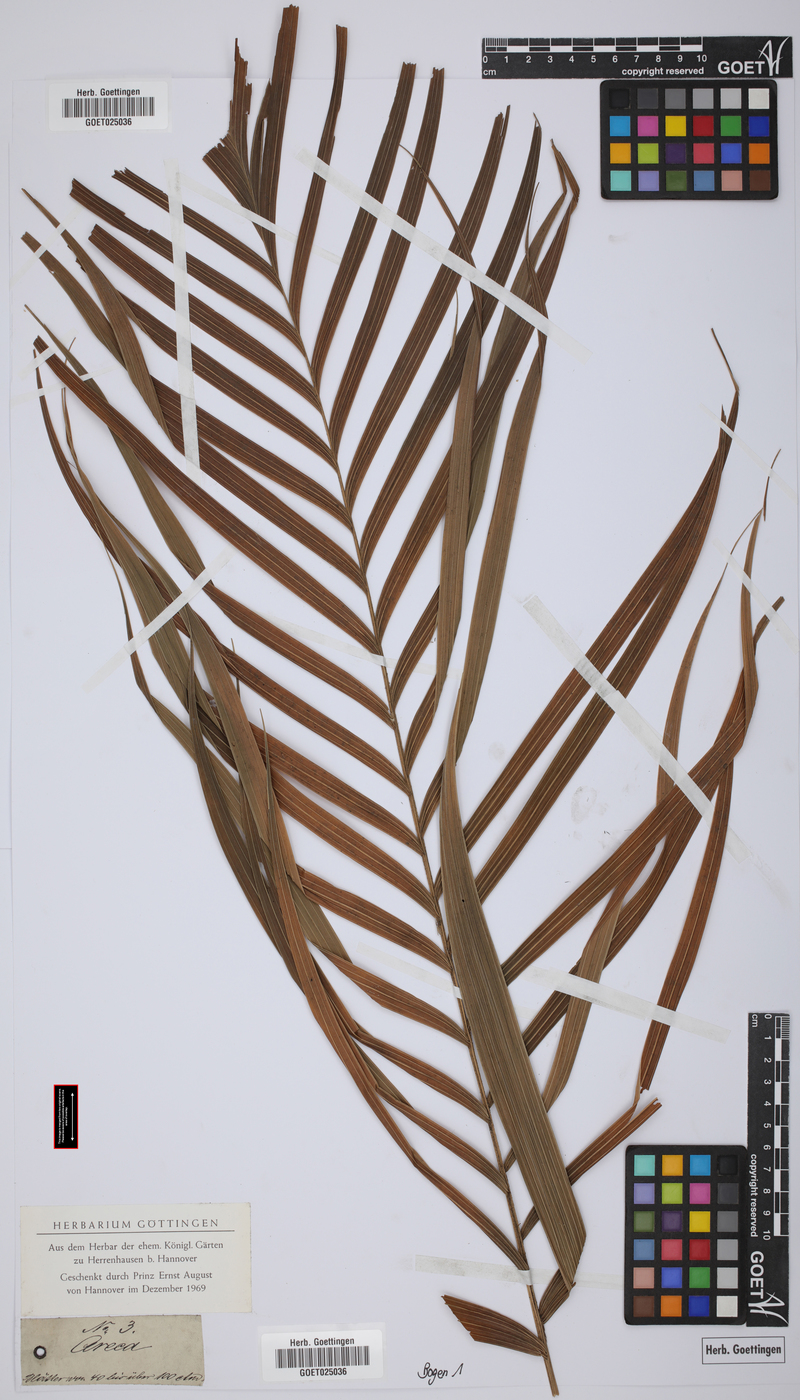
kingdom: Plantae
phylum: Tracheophyta
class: Liliopsida
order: Arecales
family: Arecaceae
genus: Areca
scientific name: Areca
